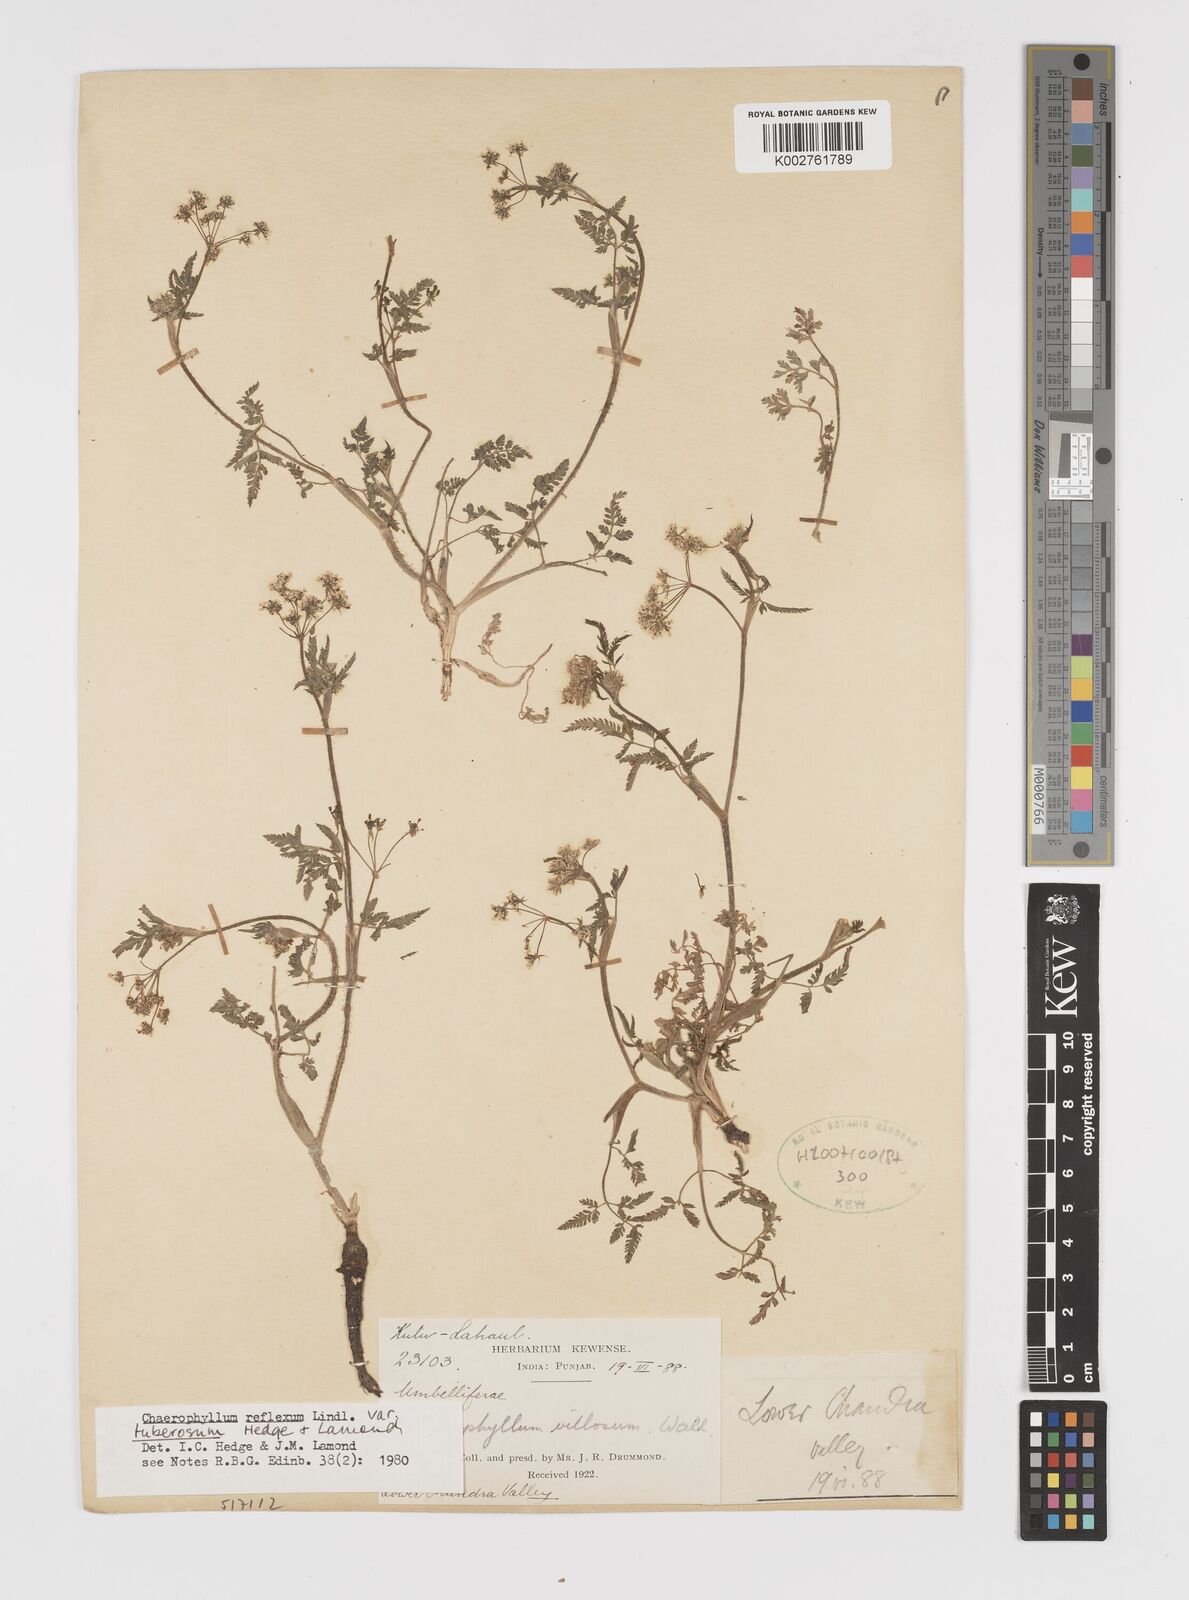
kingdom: Plantae
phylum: Tracheophyta
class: Magnoliopsida
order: Apiales
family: Apiaceae
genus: Chaerophyllum
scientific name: Chaerophyllum reflexum
